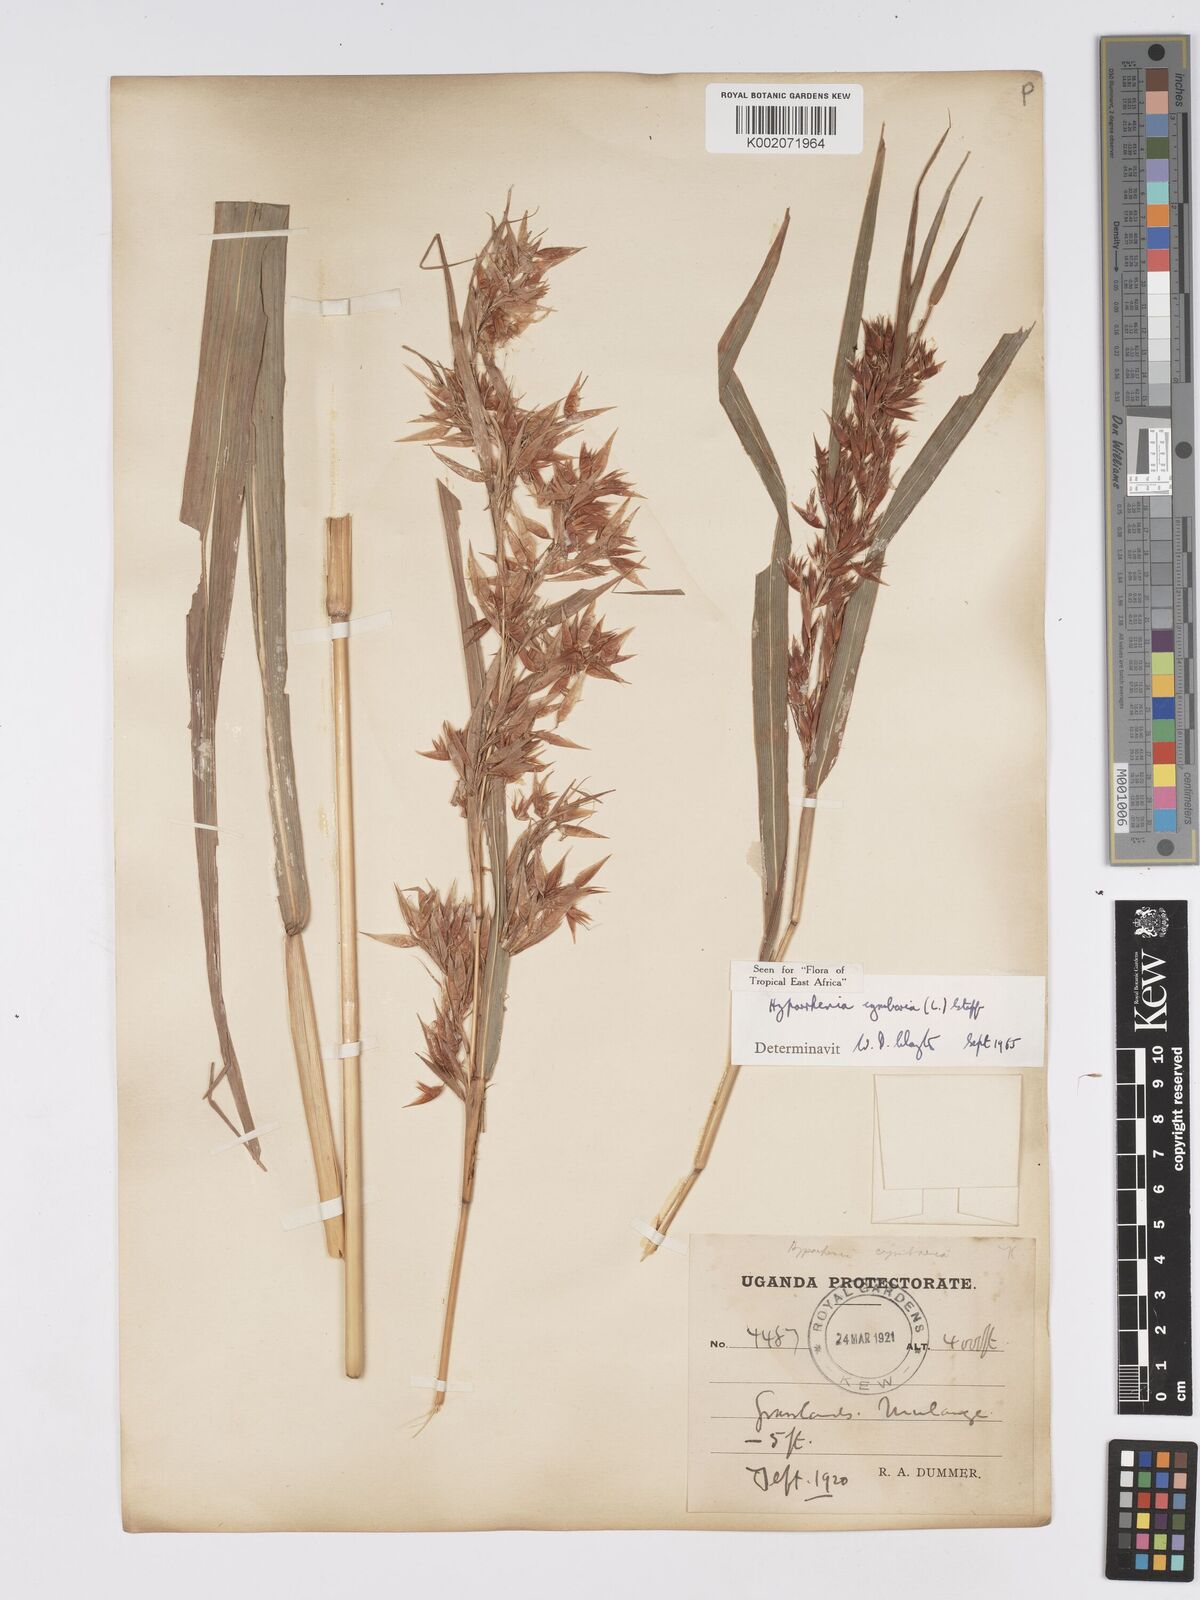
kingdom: Plantae
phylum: Tracheophyta
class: Liliopsida
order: Poales
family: Poaceae
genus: Hyparrhenia
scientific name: Hyparrhenia cymbaria
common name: Boat thatching grass
